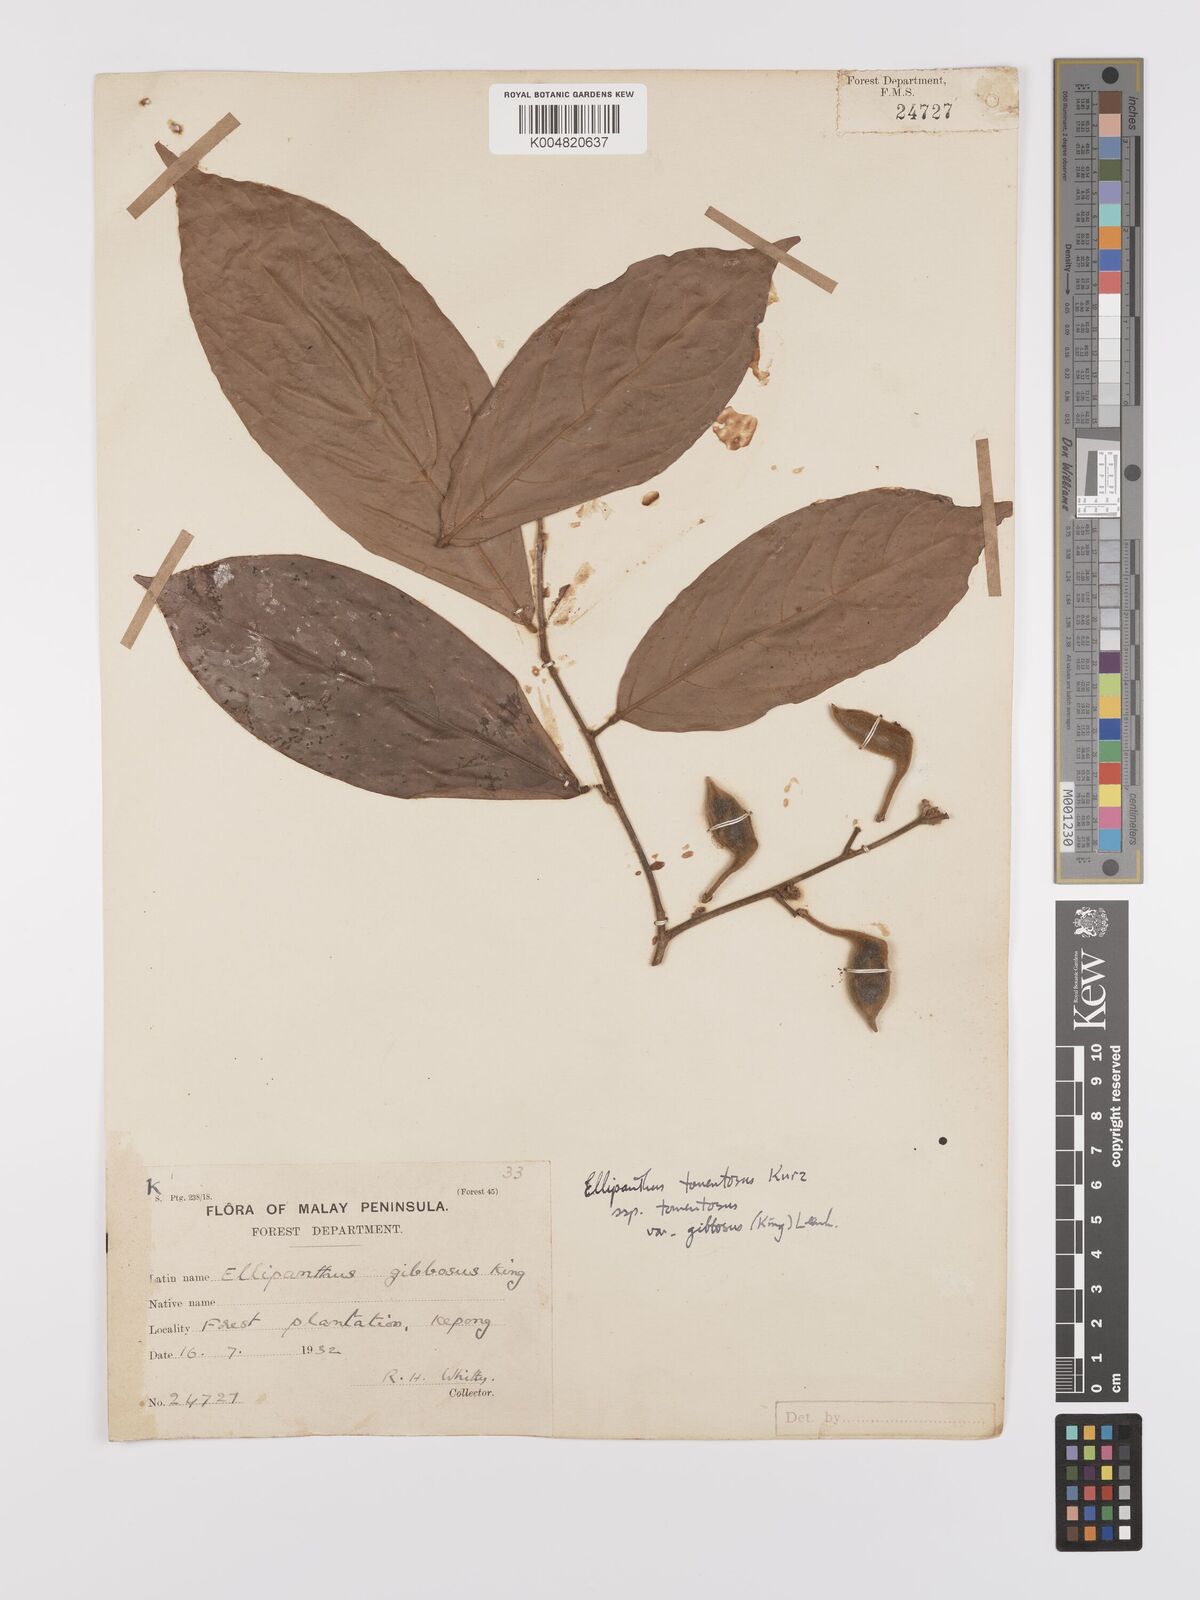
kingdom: Plantae
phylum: Tracheophyta
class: Magnoliopsida
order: Oxalidales
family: Connaraceae
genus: Ellipanthus
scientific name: Ellipanthus tomentosus
